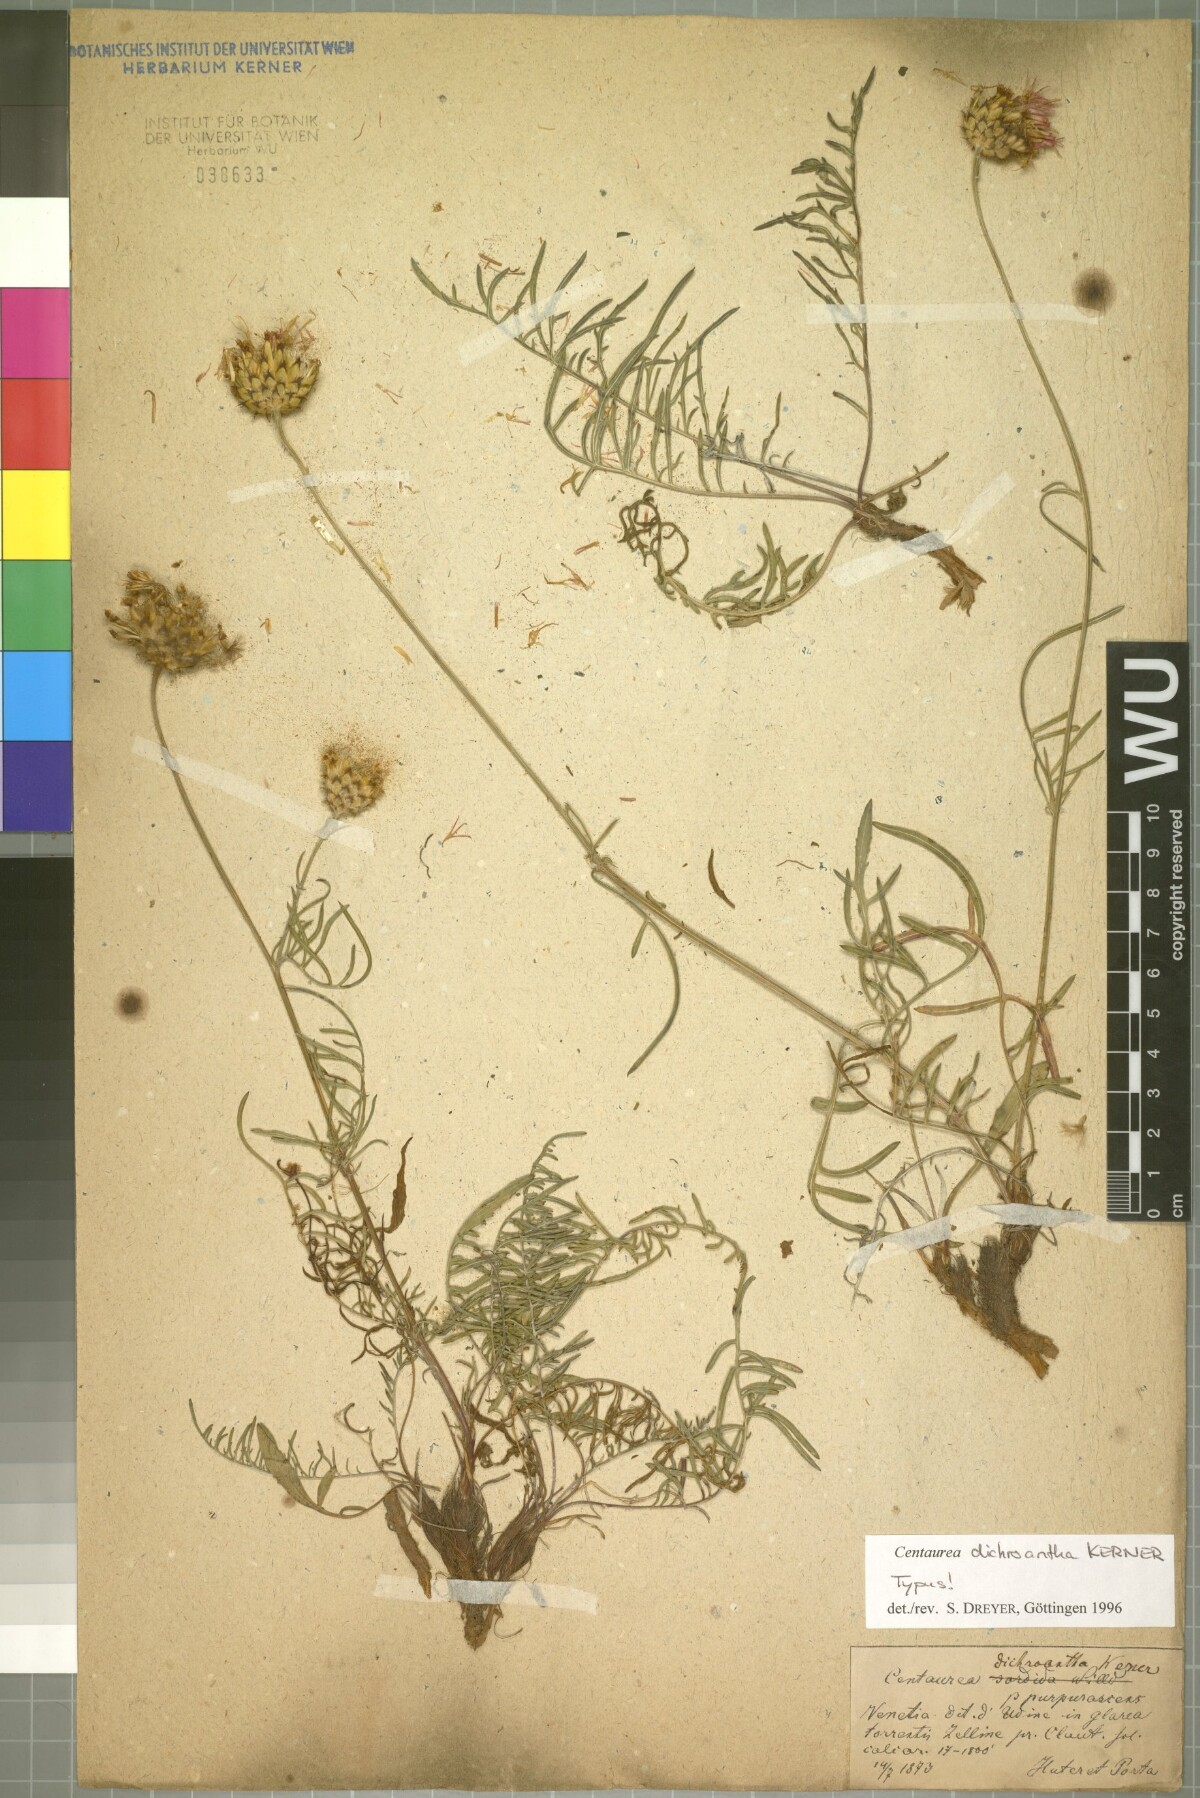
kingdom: Plantae
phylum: Tracheophyta
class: Magnoliopsida
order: Asterales
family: Asteraceae
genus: Centaurea
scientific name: Centaurea dichroantha
